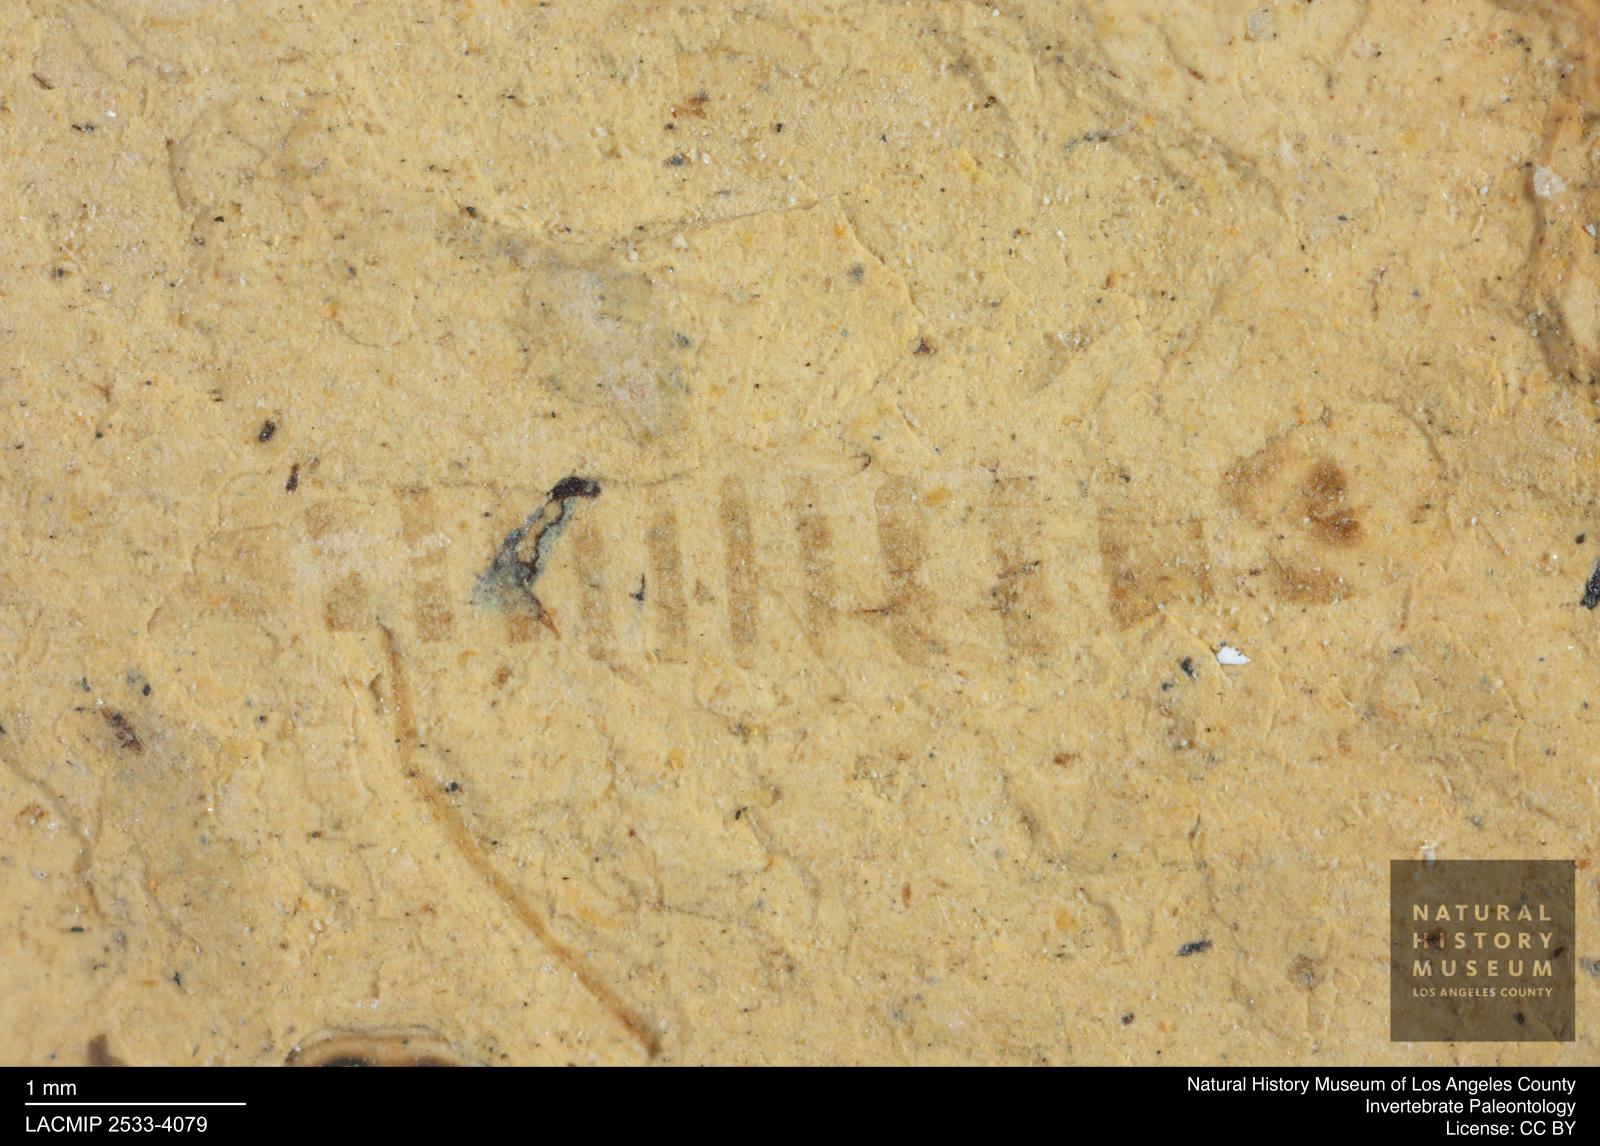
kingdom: Animalia
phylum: Arthropoda
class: Insecta
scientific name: Insecta
